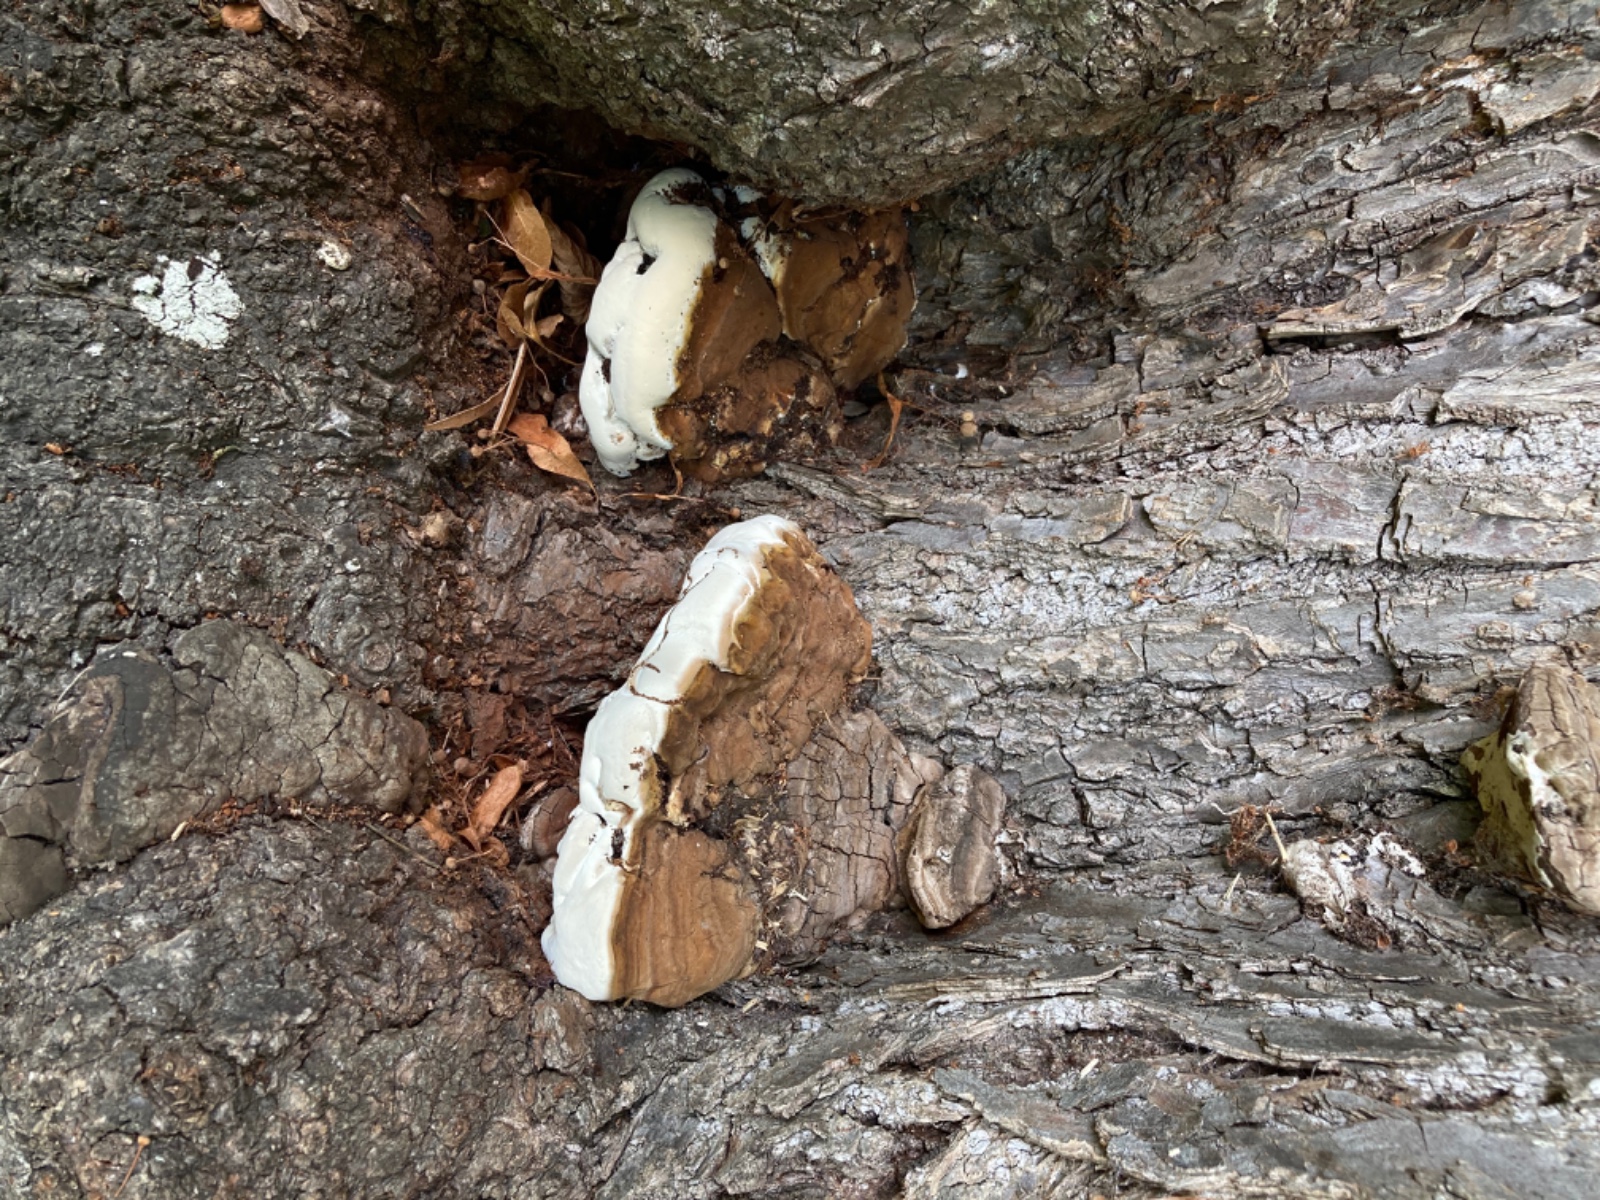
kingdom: Fungi
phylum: Basidiomycota
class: Agaricomycetes
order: Polyporales
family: Polyporaceae
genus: Ganoderma
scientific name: Ganoderma adspersum
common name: grov lakporesvamp
